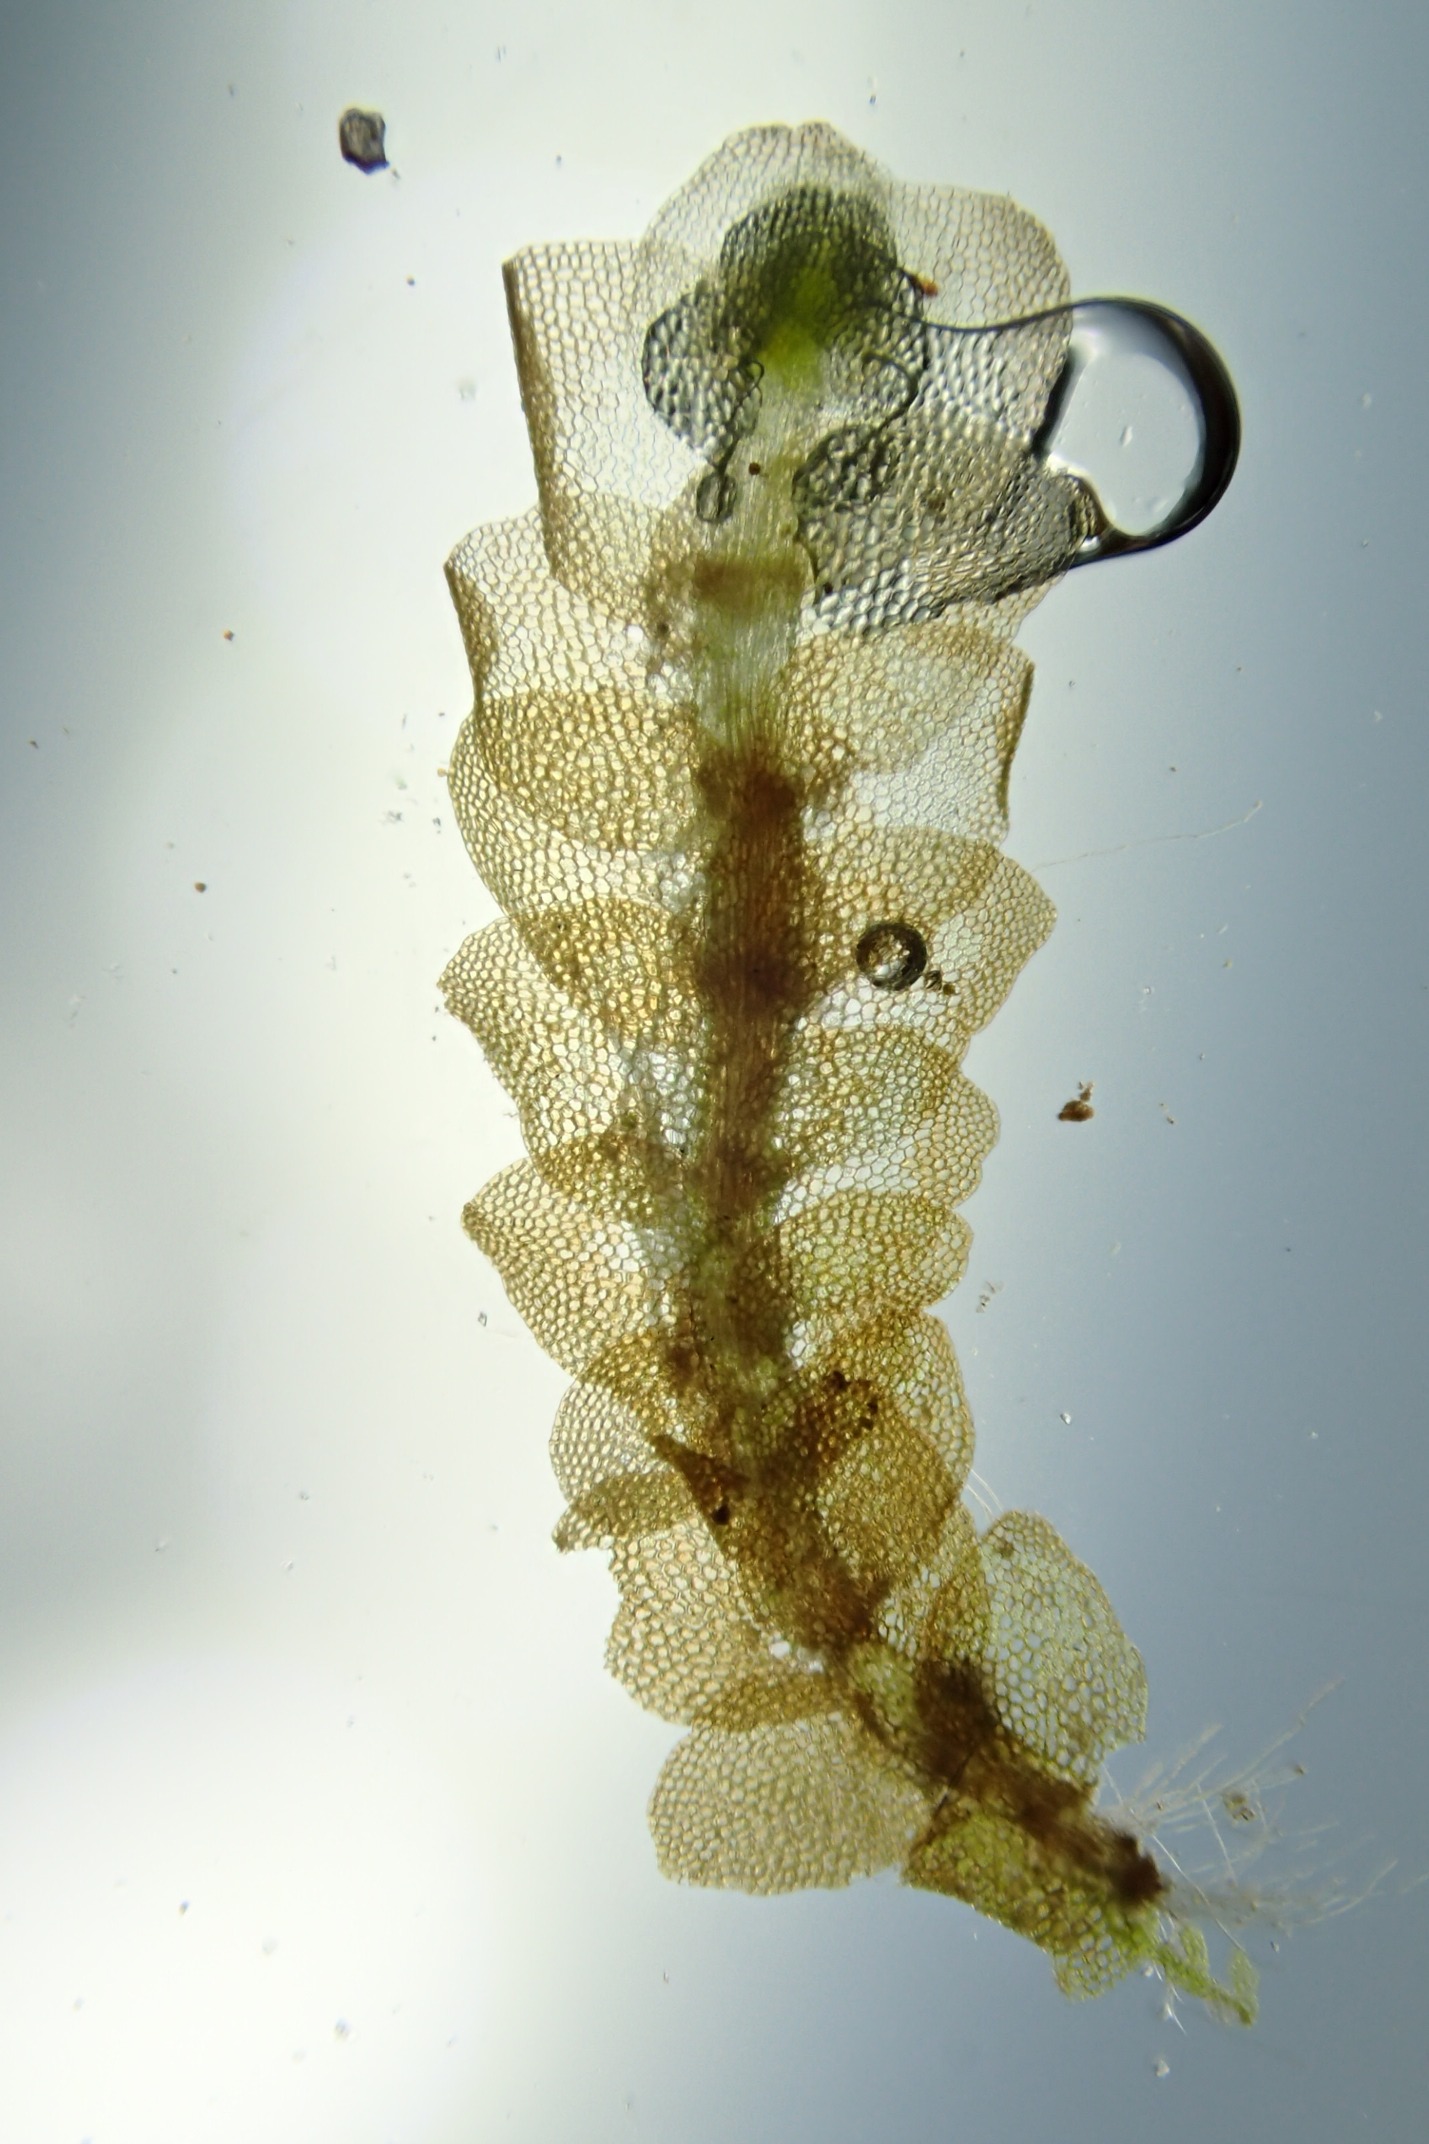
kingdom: Plantae
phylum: Marchantiophyta
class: Jungermanniopsida
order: Jungermanniales
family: Calypogeiaceae
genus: Calypogeia
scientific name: Calypogeia muelleriana
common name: Almindelig sækmos
